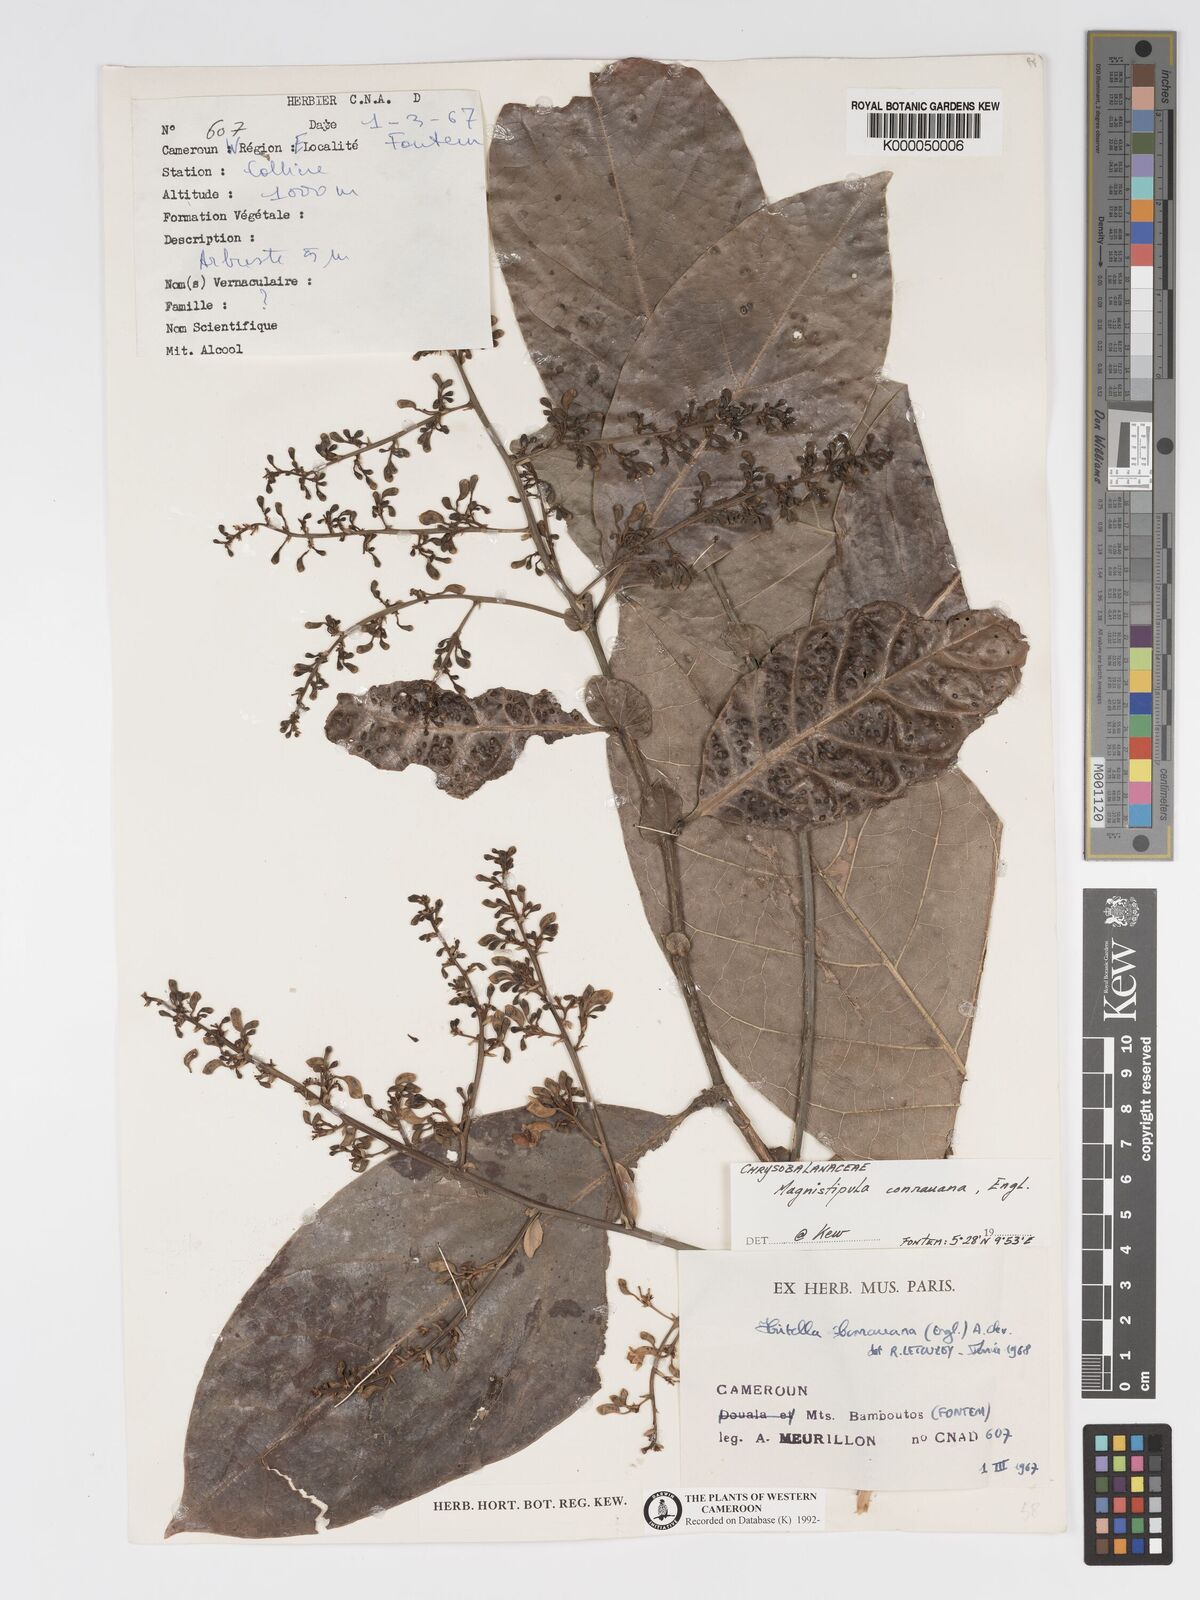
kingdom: Plantae
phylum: Tracheophyta
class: Magnoliopsida
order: Malpighiales
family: Chrysobalanaceae
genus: Magnistipula
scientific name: Magnistipula conrauana
